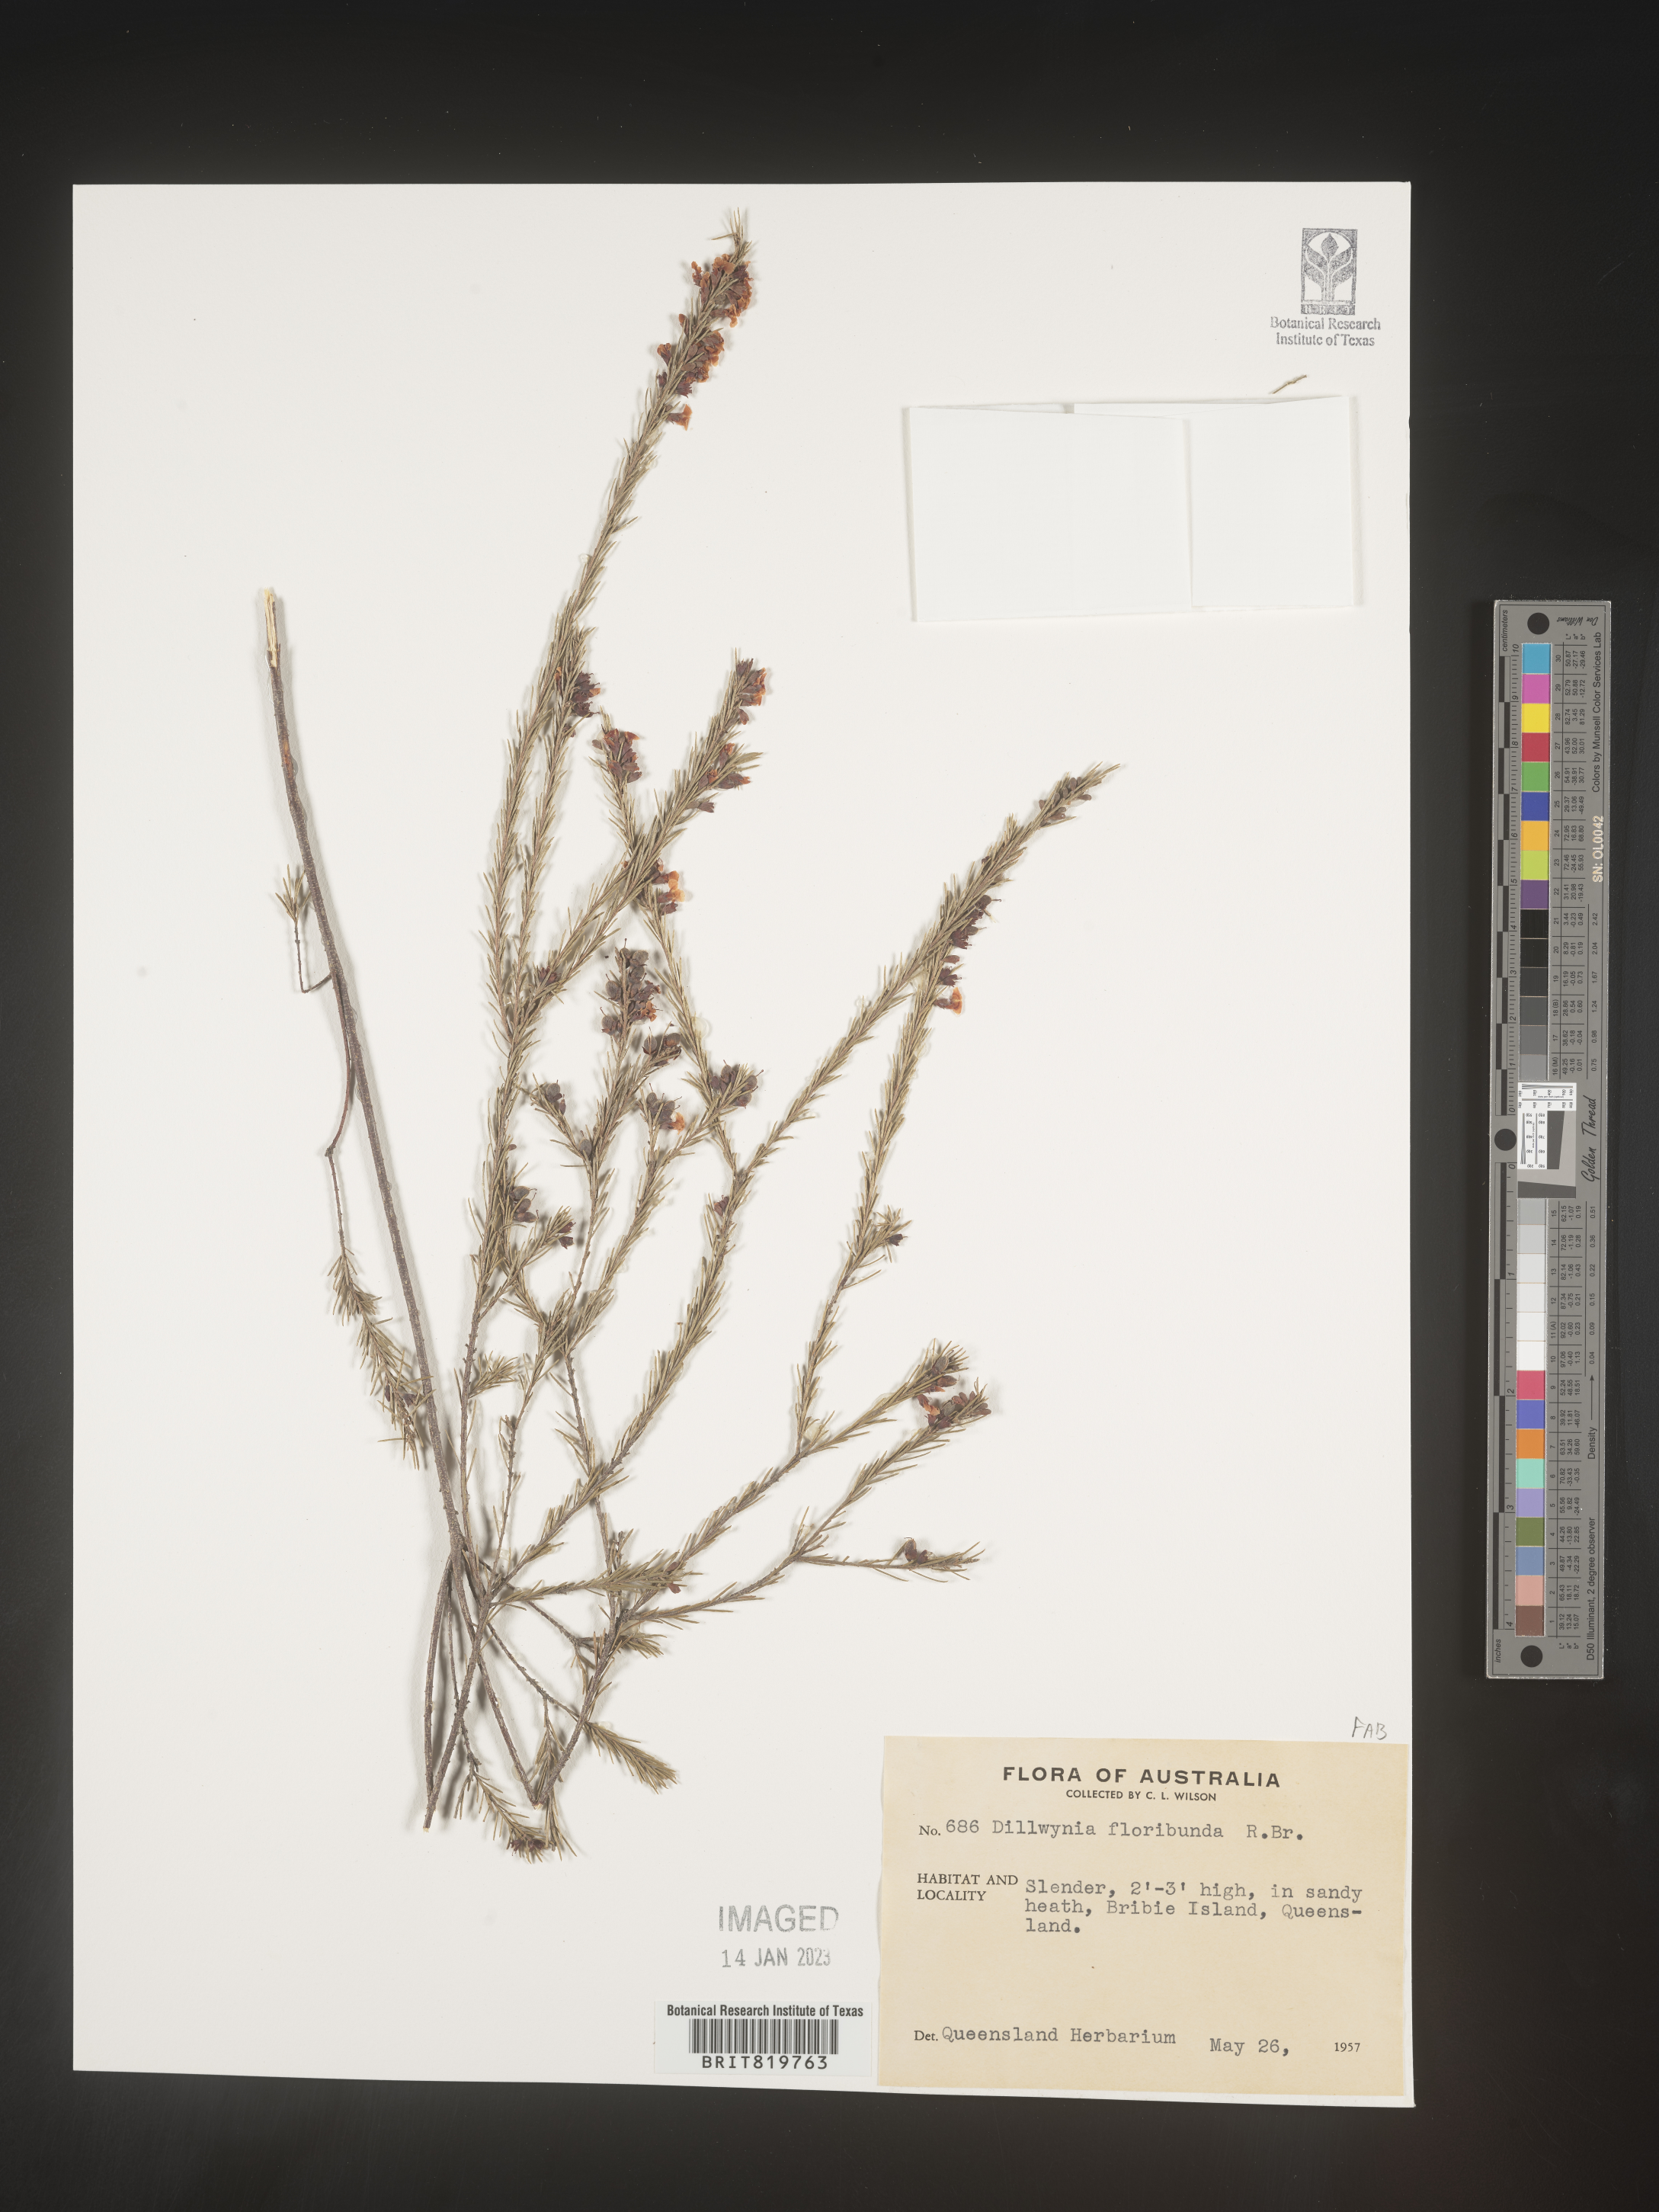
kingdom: Plantae
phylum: Tracheophyta
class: Magnoliopsida
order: Fabales
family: Fabaceae
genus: Dillwynia
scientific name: Dillwynia
